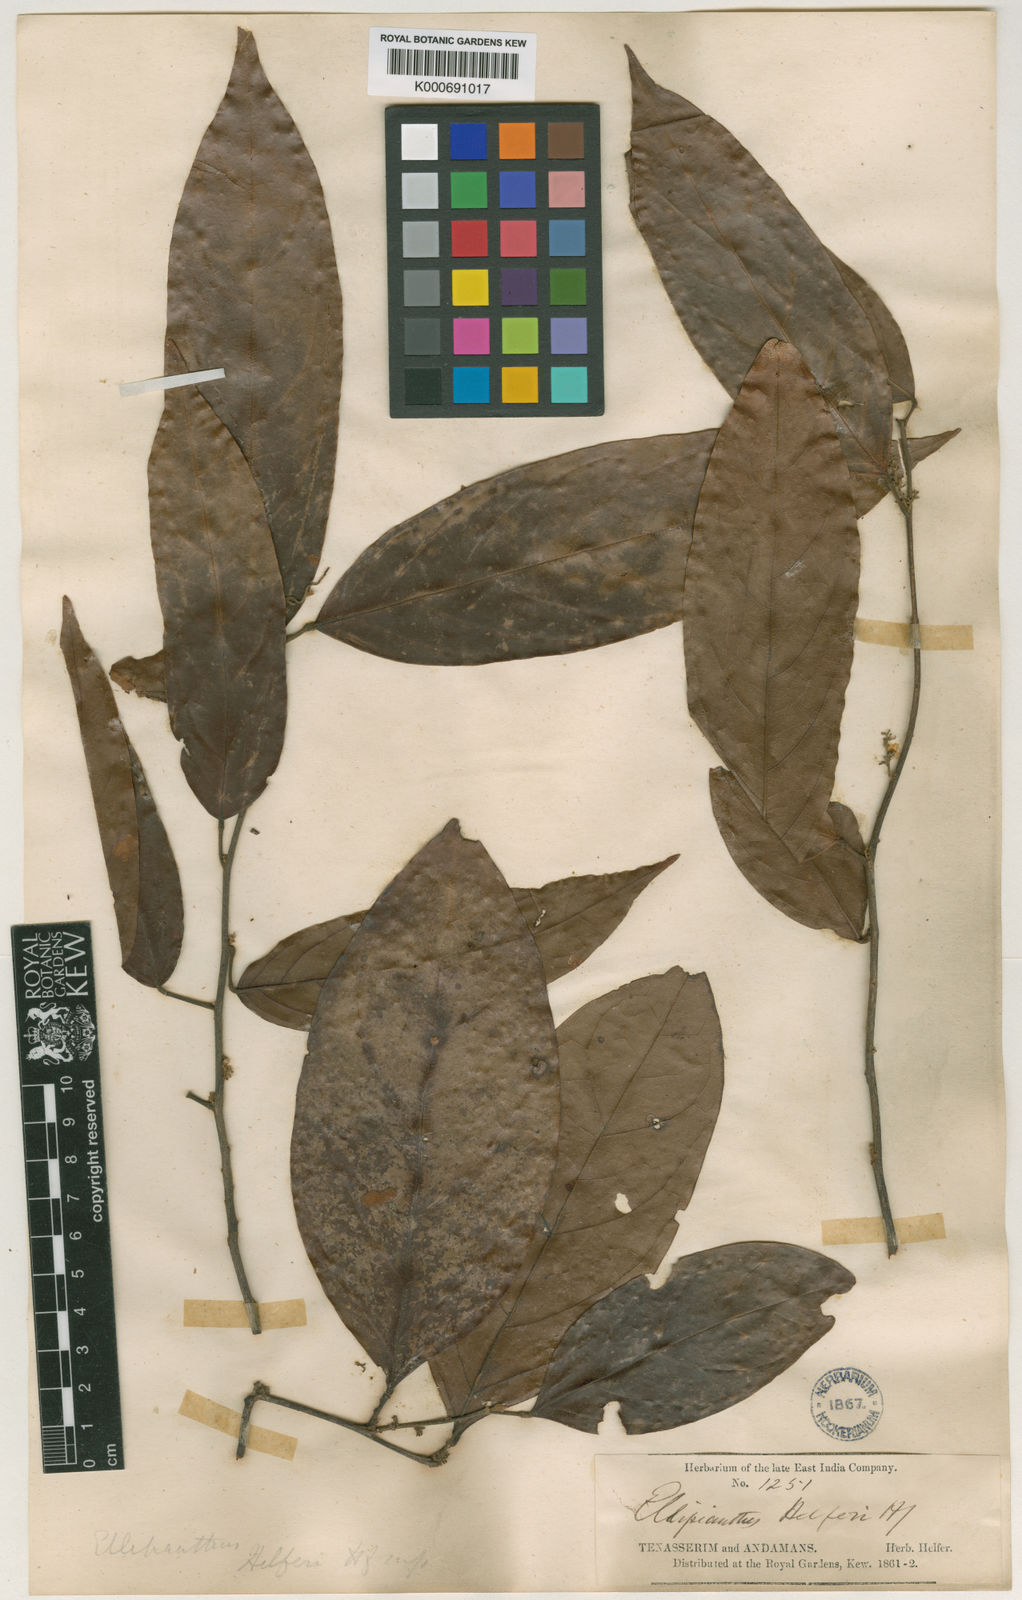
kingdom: Plantae
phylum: Tracheophyta
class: Magnoliopsida
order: Oxalidales
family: Connaraceae
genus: Ellipanthus
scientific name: Ellipanthus
